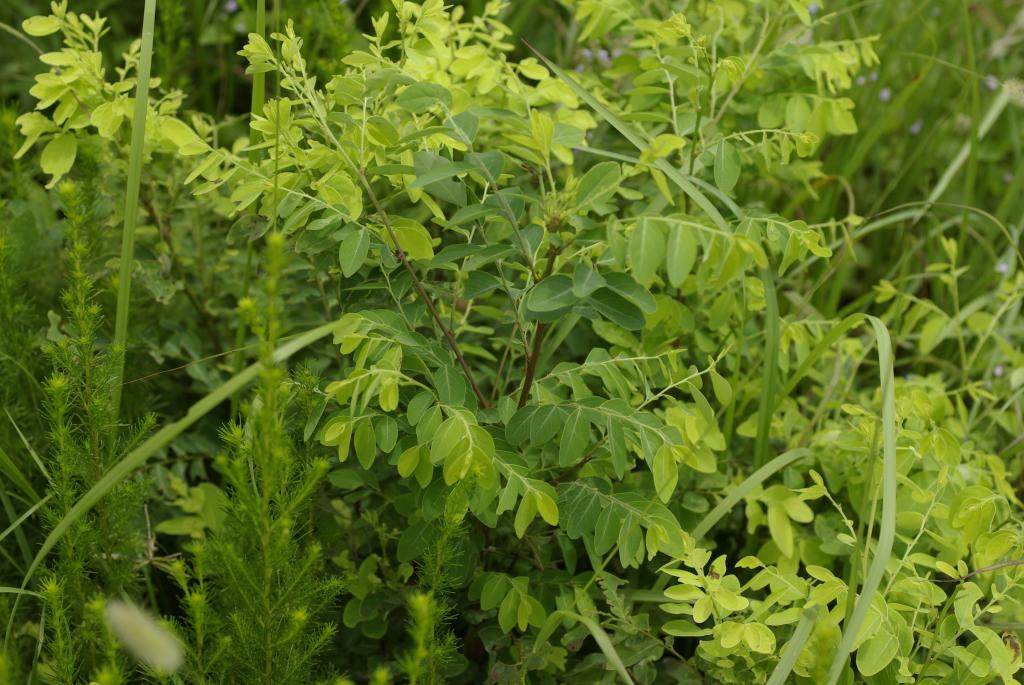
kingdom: Plantae
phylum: Tracheophyta
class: Magnoliopsida
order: Malpighiales
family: Phyllanthaceae
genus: Breynia
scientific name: Breynia officinalis
